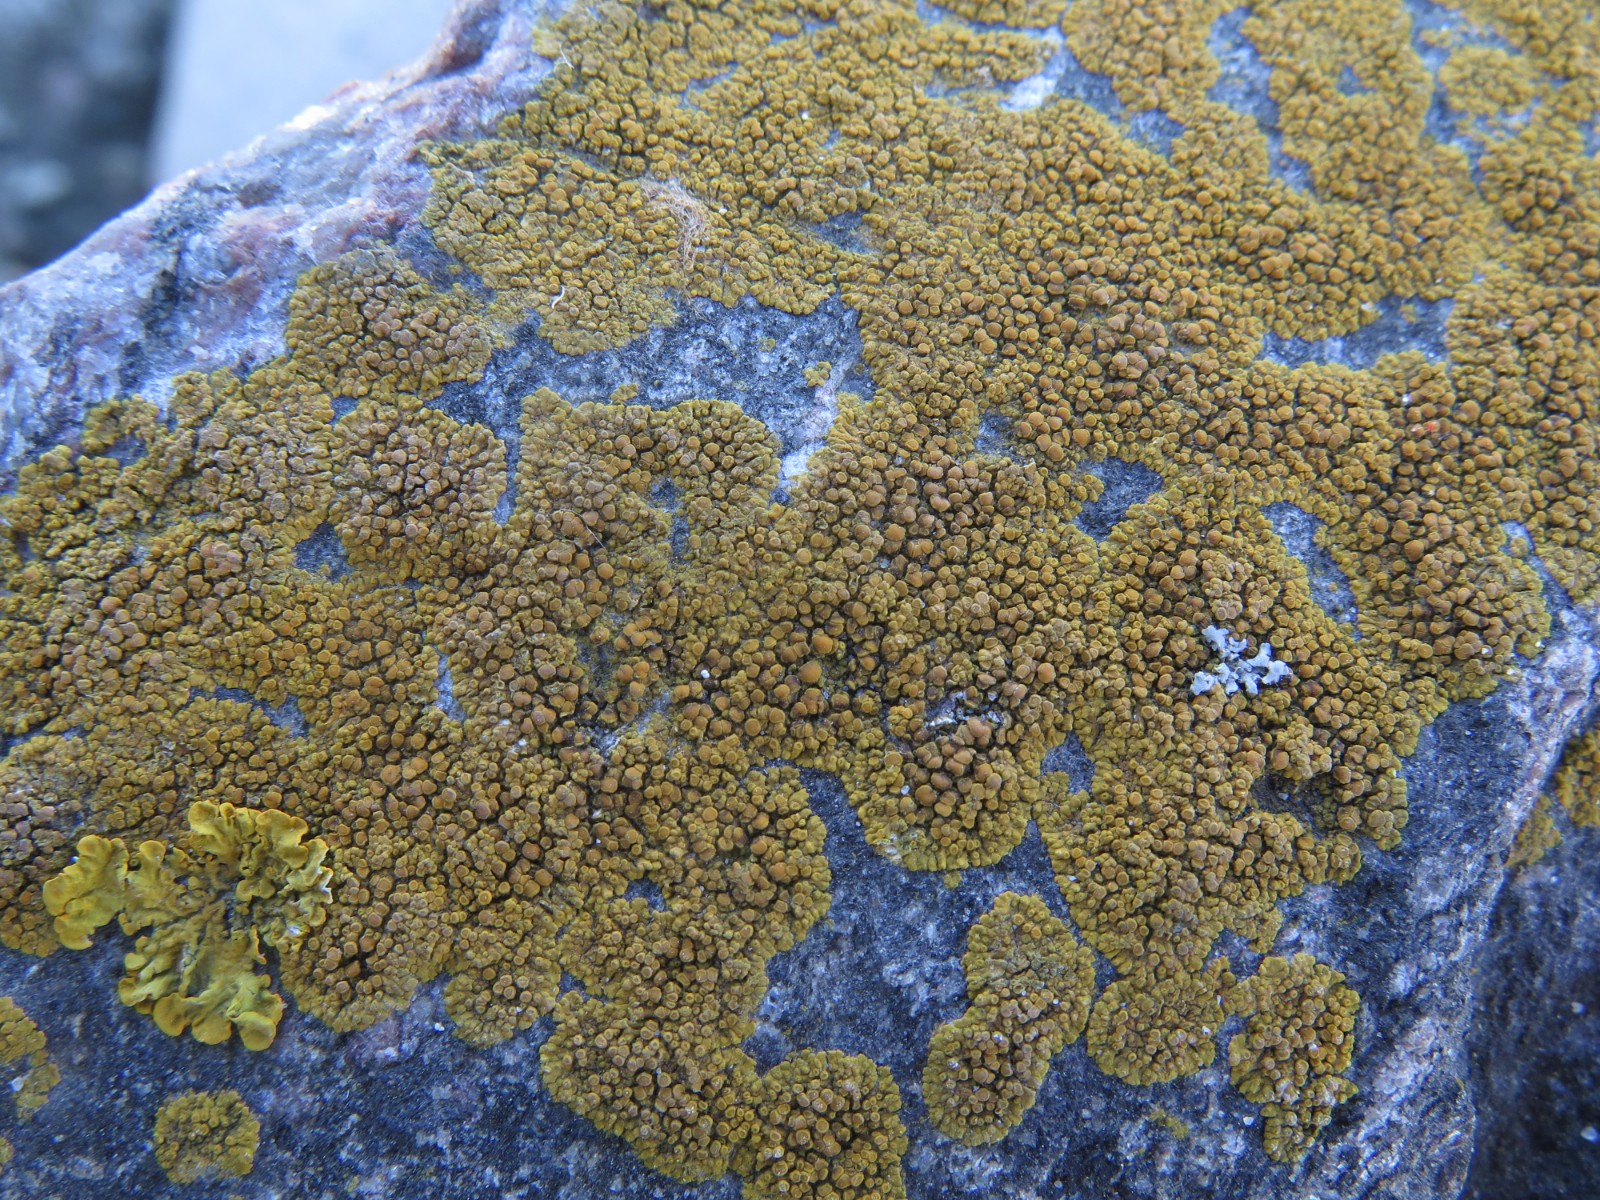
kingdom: Fungi
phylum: Ascomycota
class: Lecanoromycetes
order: Teloschistales
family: Teloschistaceae
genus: Athallia
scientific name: Athallia scopularis
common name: klippe-orangelav
